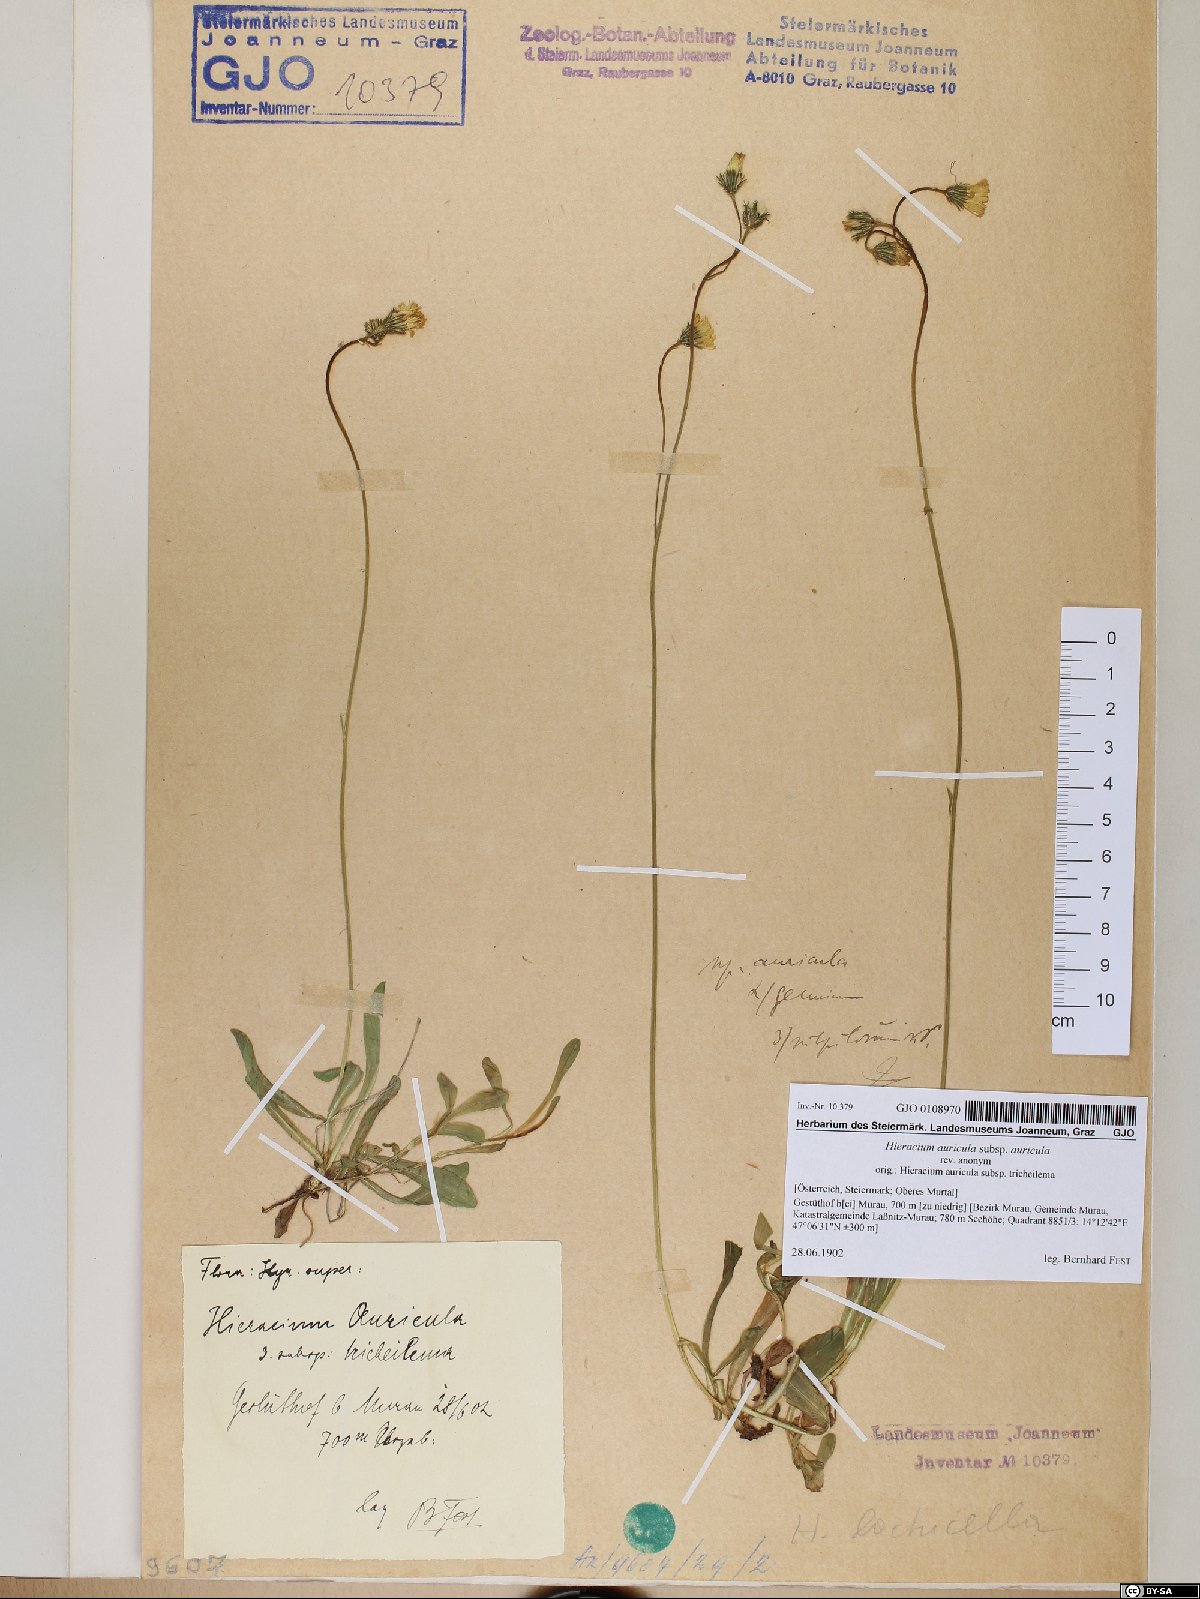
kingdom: Plantae
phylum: Tracheophyta
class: Magnoliopsida
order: Asterales
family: Asteraceae
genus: Hieracium
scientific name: Hieracium auricula
